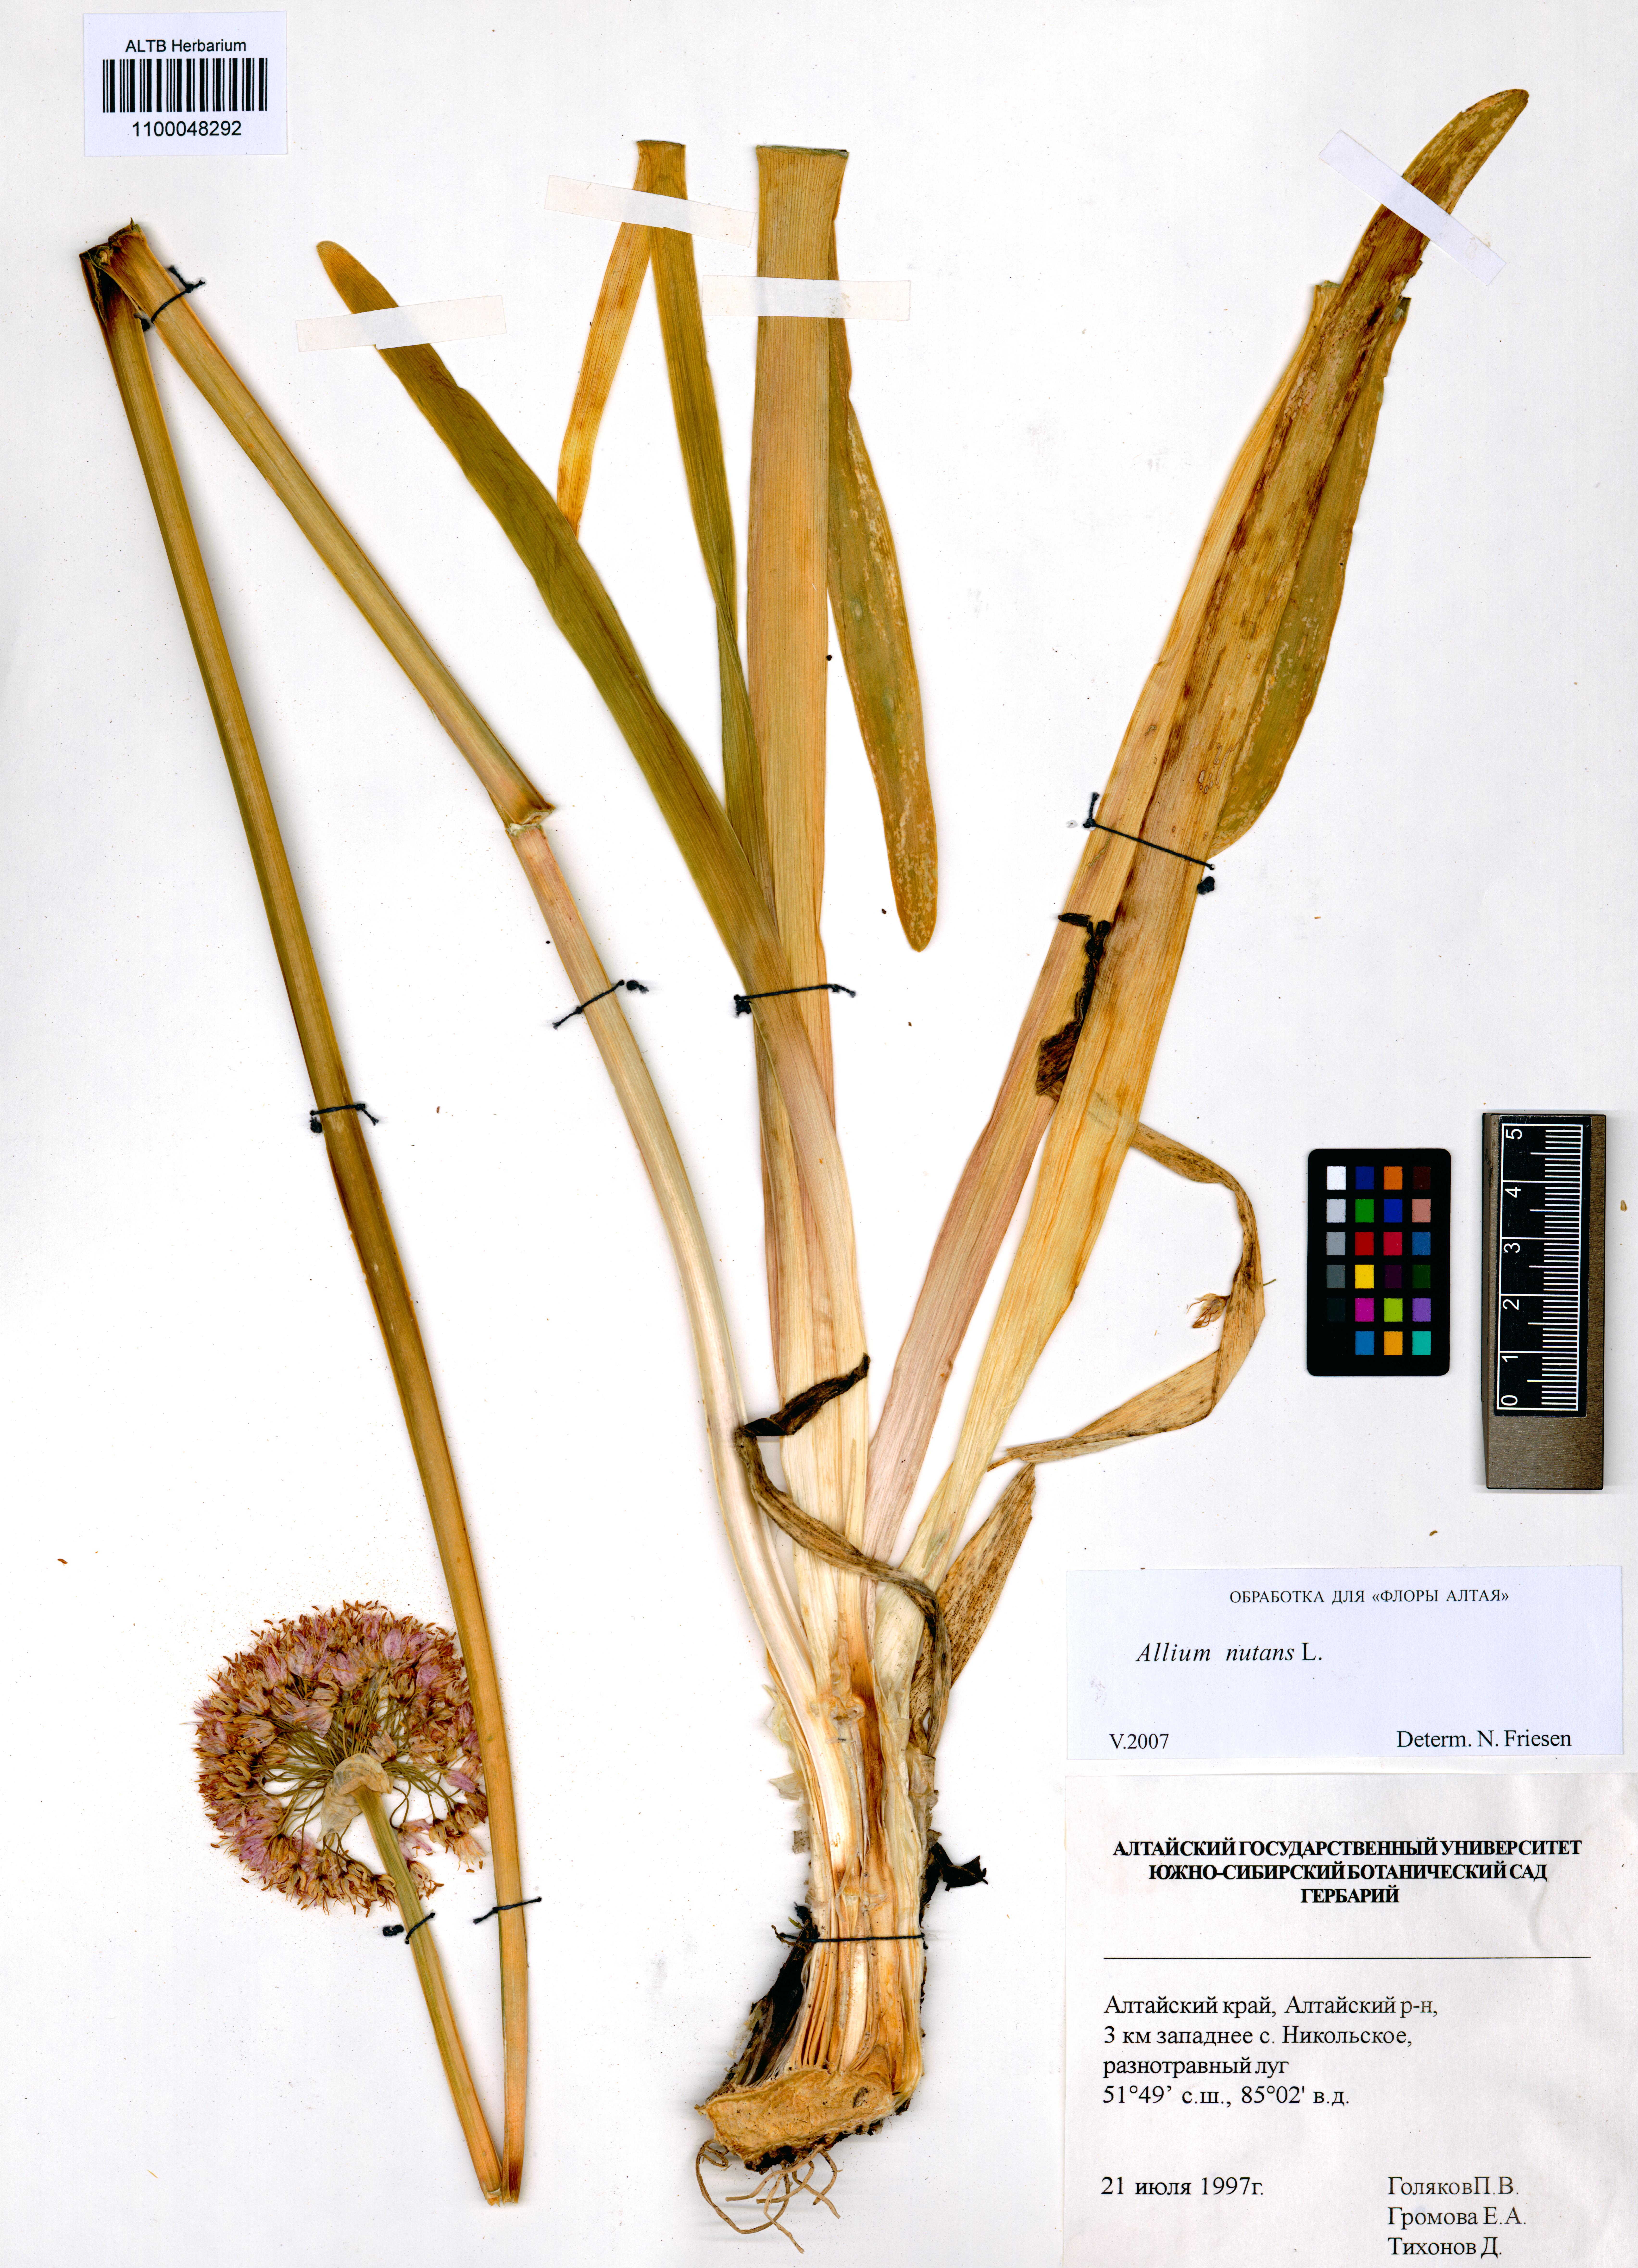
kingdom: Plantae
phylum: Tracheophyta
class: Liliopsida
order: Asparagales
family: Amaryllidaceae
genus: Allium
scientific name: Allium nutans
